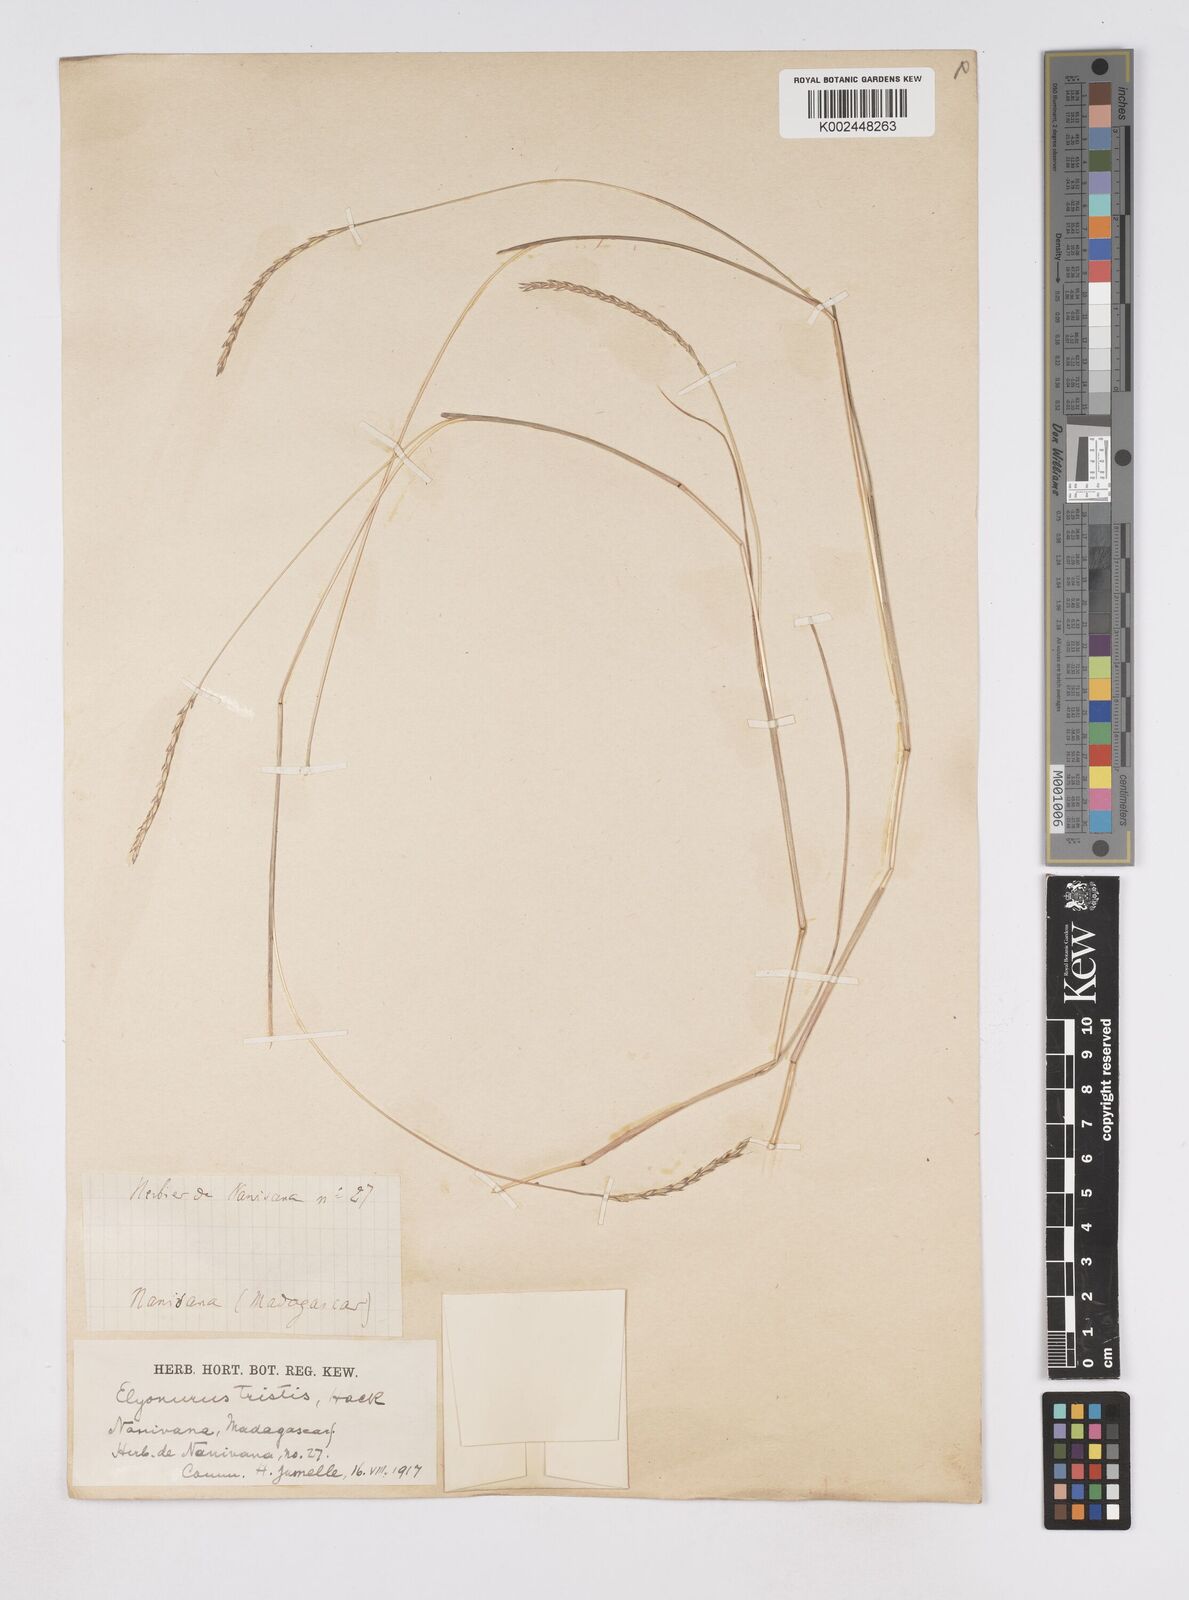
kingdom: Plantae
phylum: Tracheophyta
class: Liliopsida
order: Poales
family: Poaceae
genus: Elionurus
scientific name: Elionurus tristis
